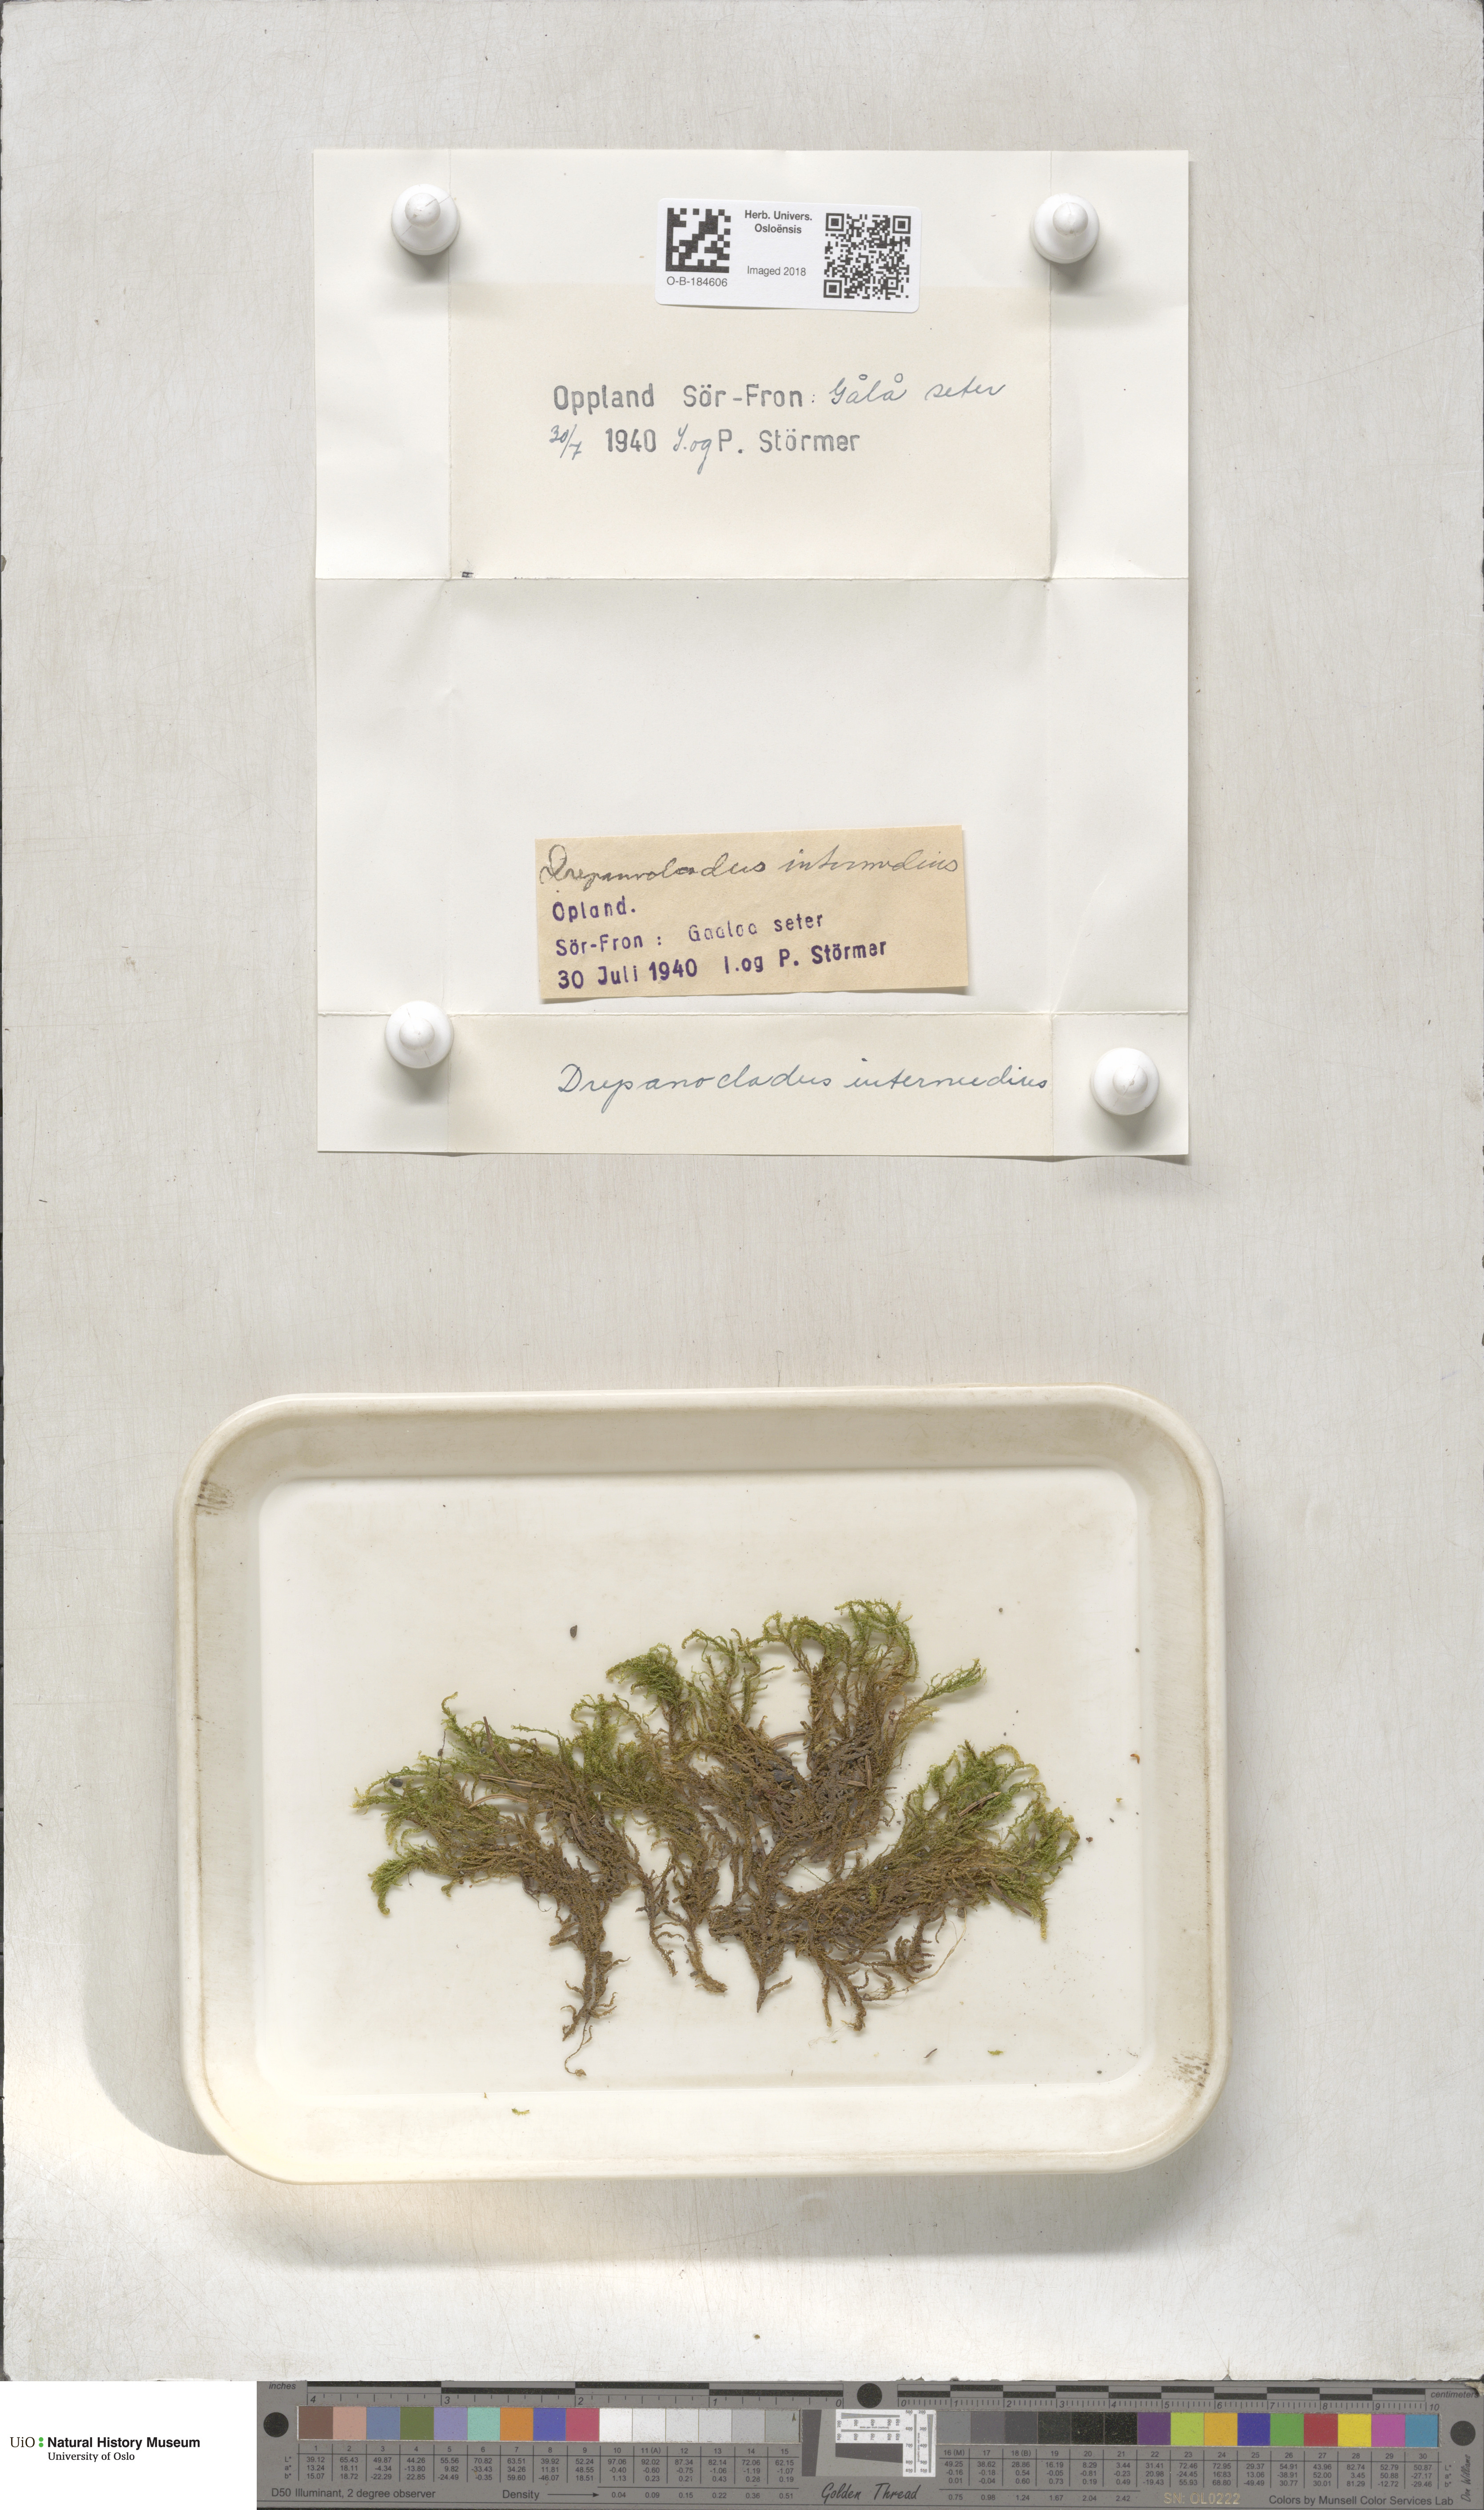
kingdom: Plantae
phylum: Bryophyta
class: Bryopsida
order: Hypnales
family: Scorpidiaceae
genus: Scorpidium
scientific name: Scorpidium cossonii
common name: Cosson's hook moss
